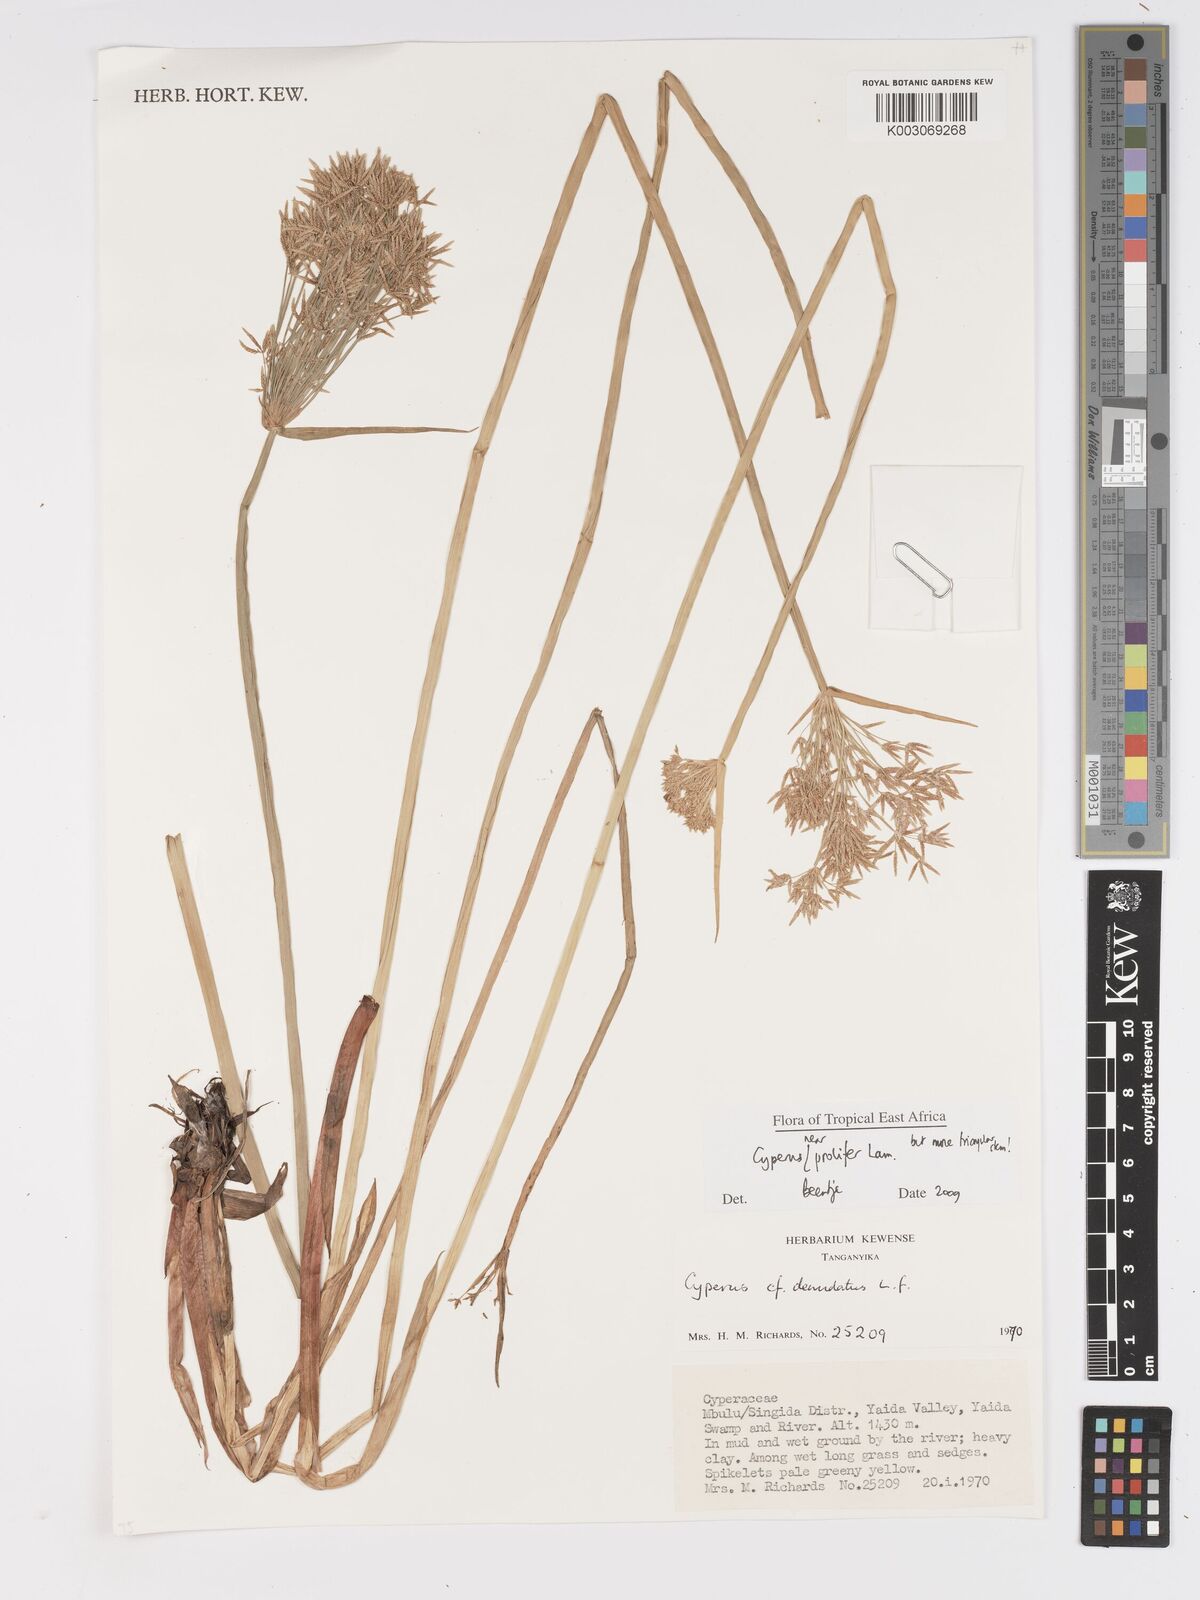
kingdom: Plantae
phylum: Tracheophyta
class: Liliopsida
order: Poales
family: Cyperaceae
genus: Cyperus
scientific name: Cyperus prolifer
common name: Miniature flatsedge
